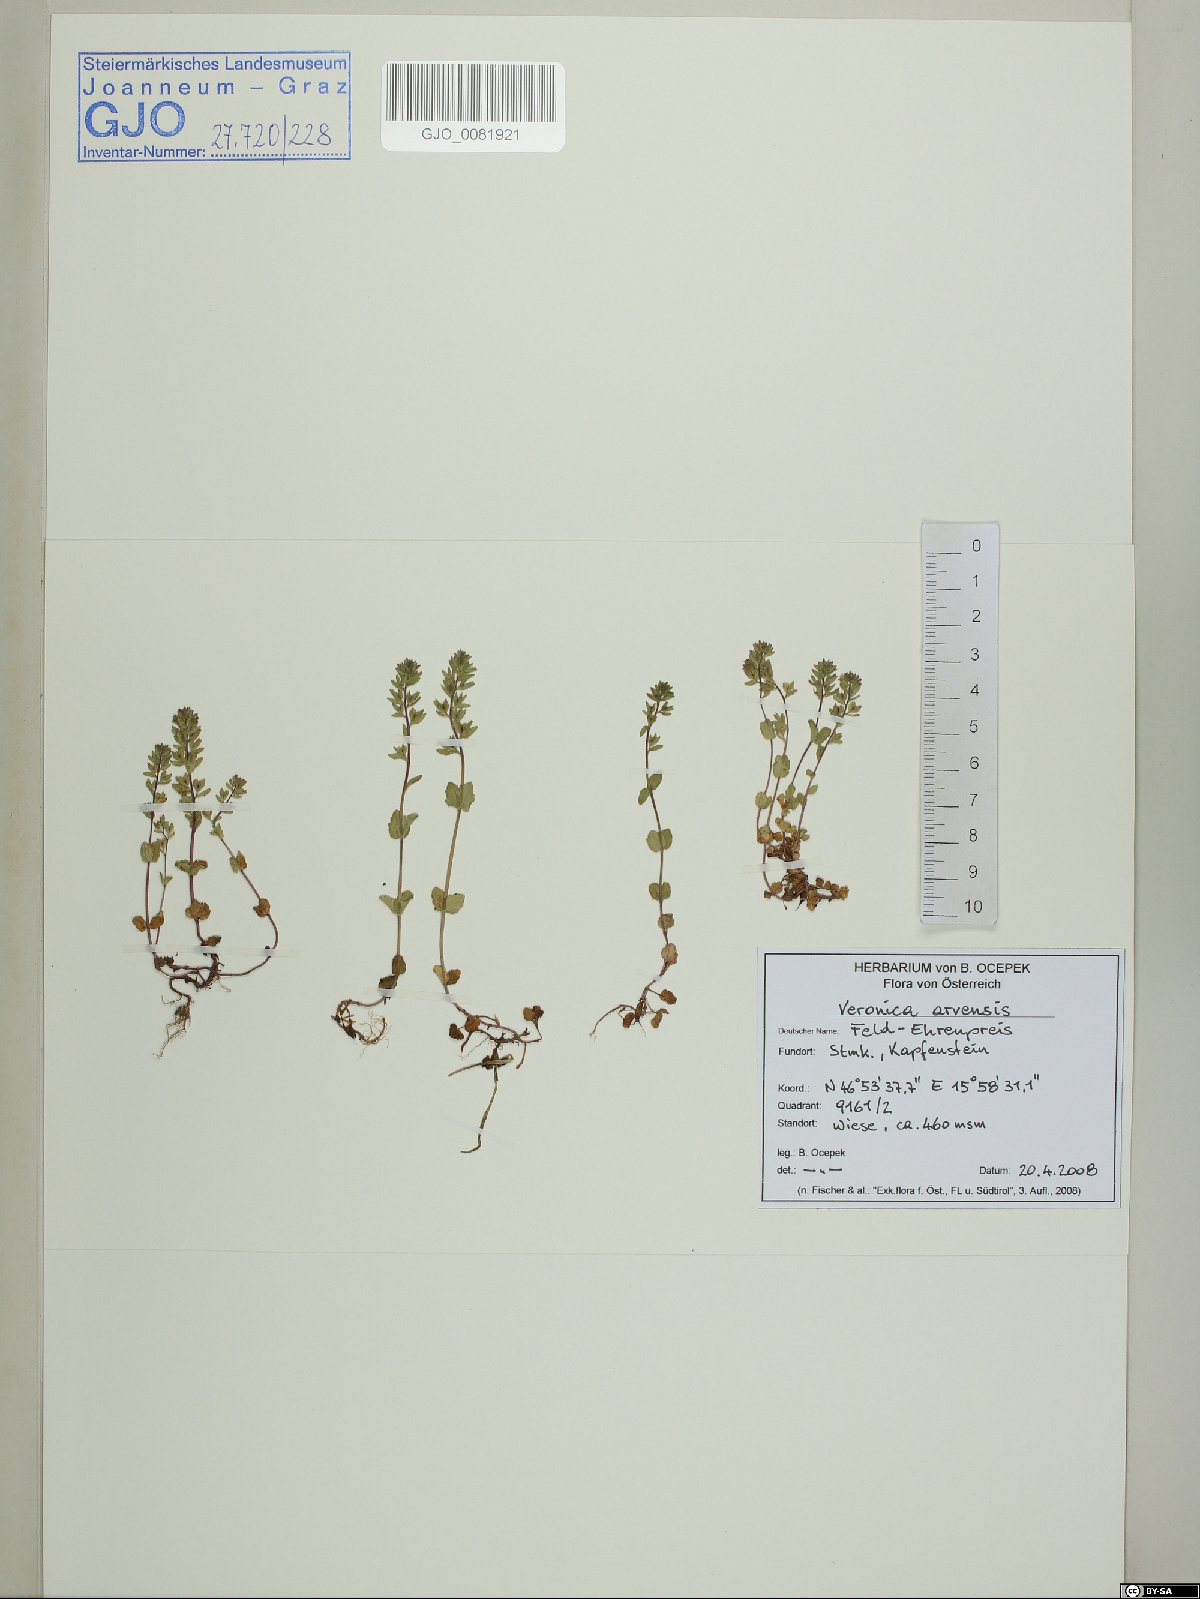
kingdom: Plantae
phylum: Tracheophyta
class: Magnoliopsida
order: Lamiales
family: Plantaginaceae
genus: Veronica
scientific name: Veronica arvensis
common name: Corn speedwell
